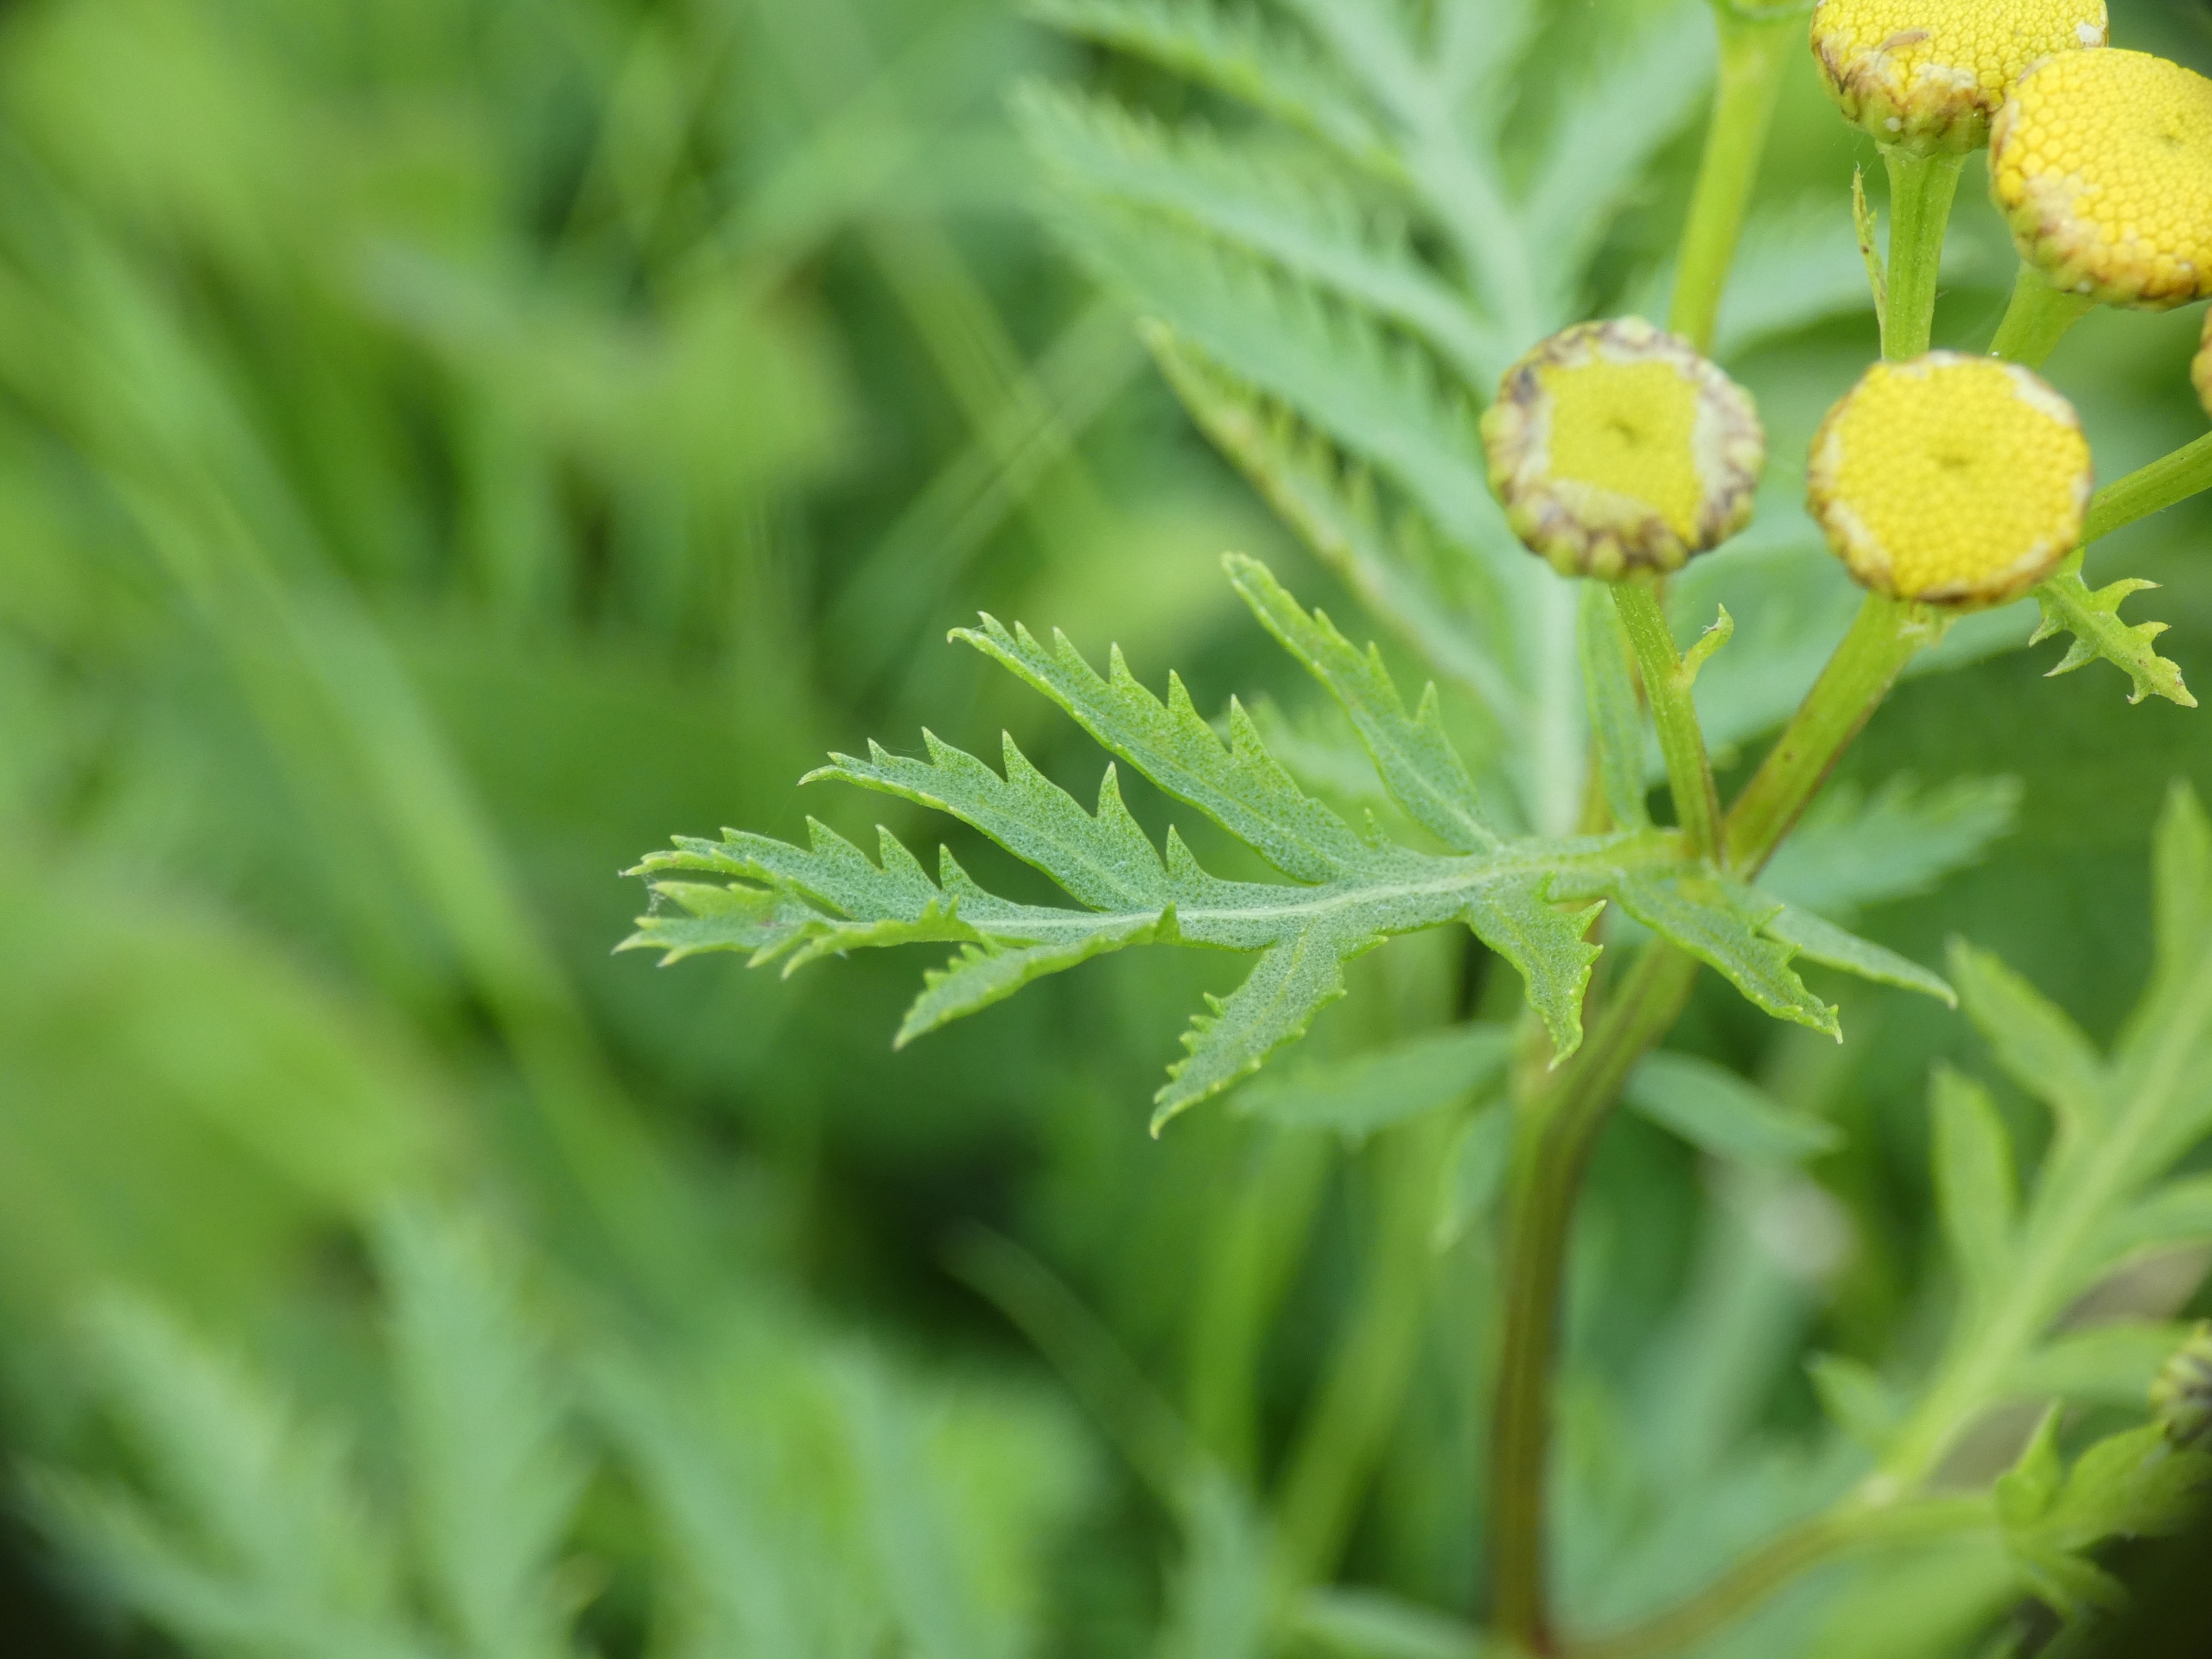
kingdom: Plantae
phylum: Tracheophyta
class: Magnoliopsida
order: Asterales
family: Asteraceae
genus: Tanacetum
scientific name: Tanacetum vulgare
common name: Rejnfan
